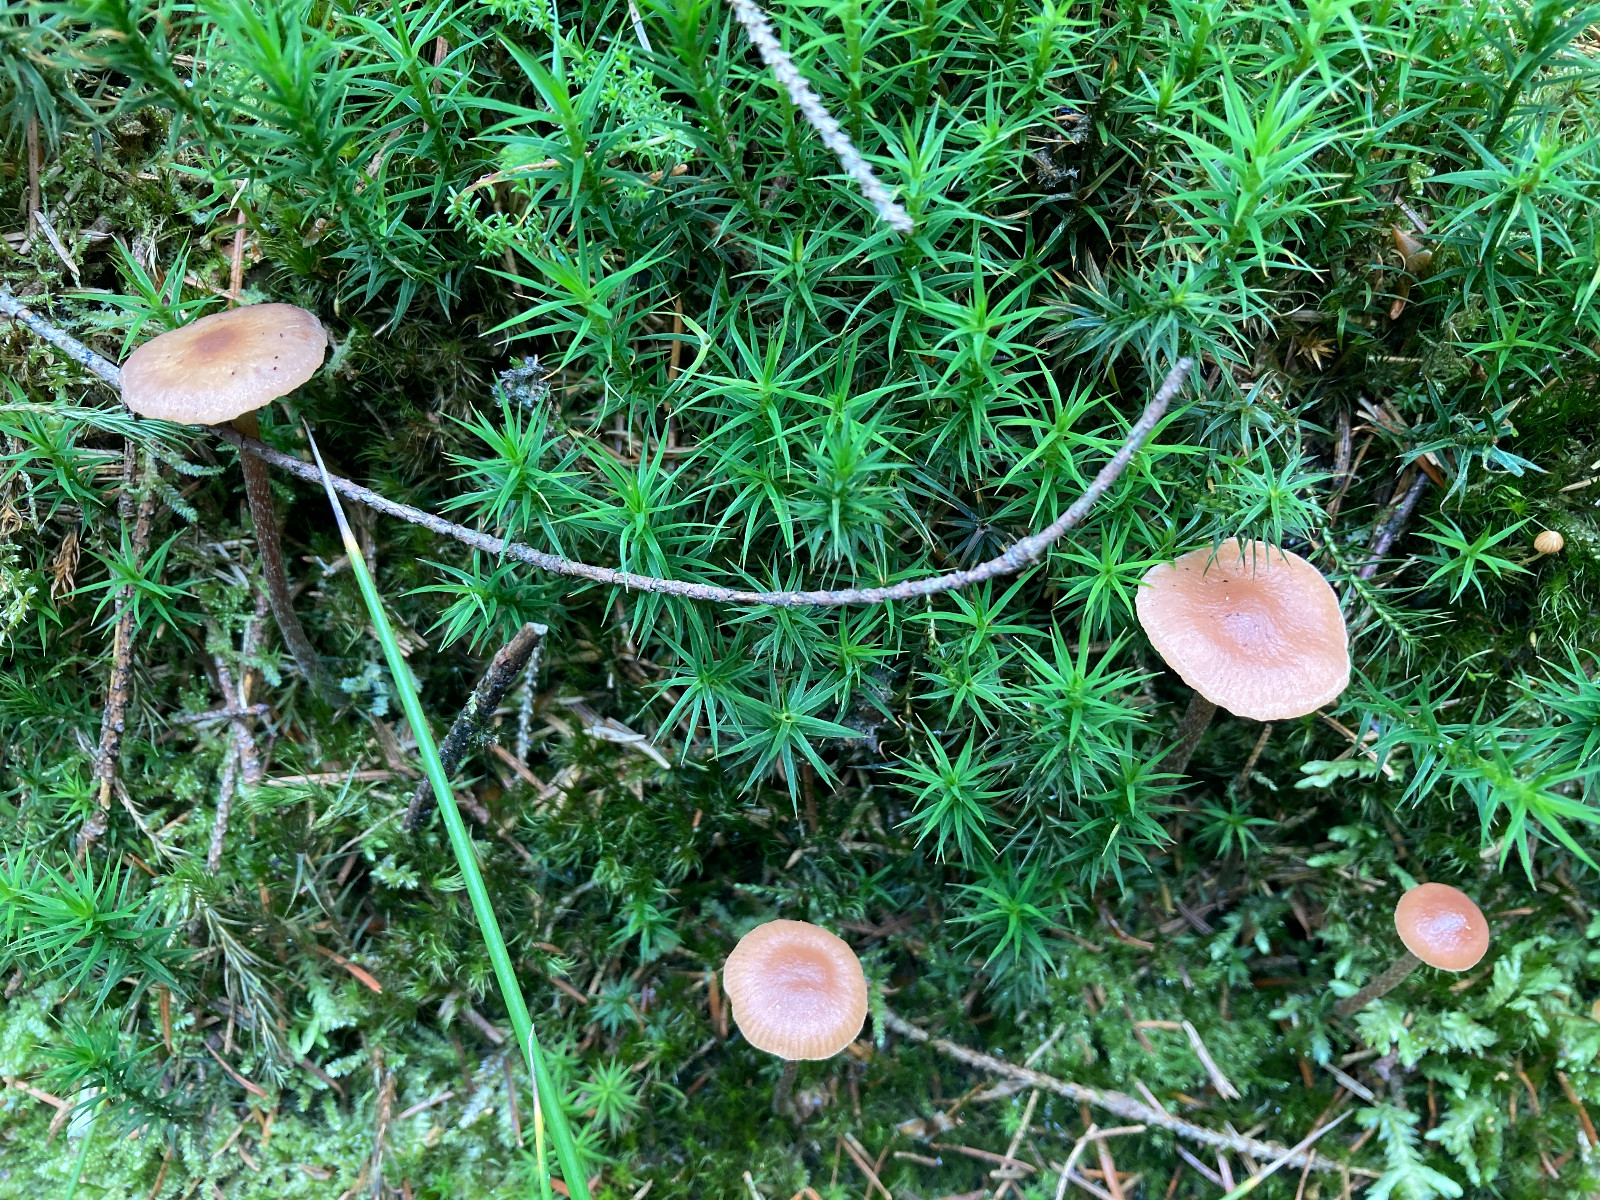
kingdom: Fungi
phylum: Basidiomycota
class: Agaricomycetes
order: Agaricales
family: Strophariaceae
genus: Bogbodia
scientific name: Bogbodia uda
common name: tørve-svovlhat
